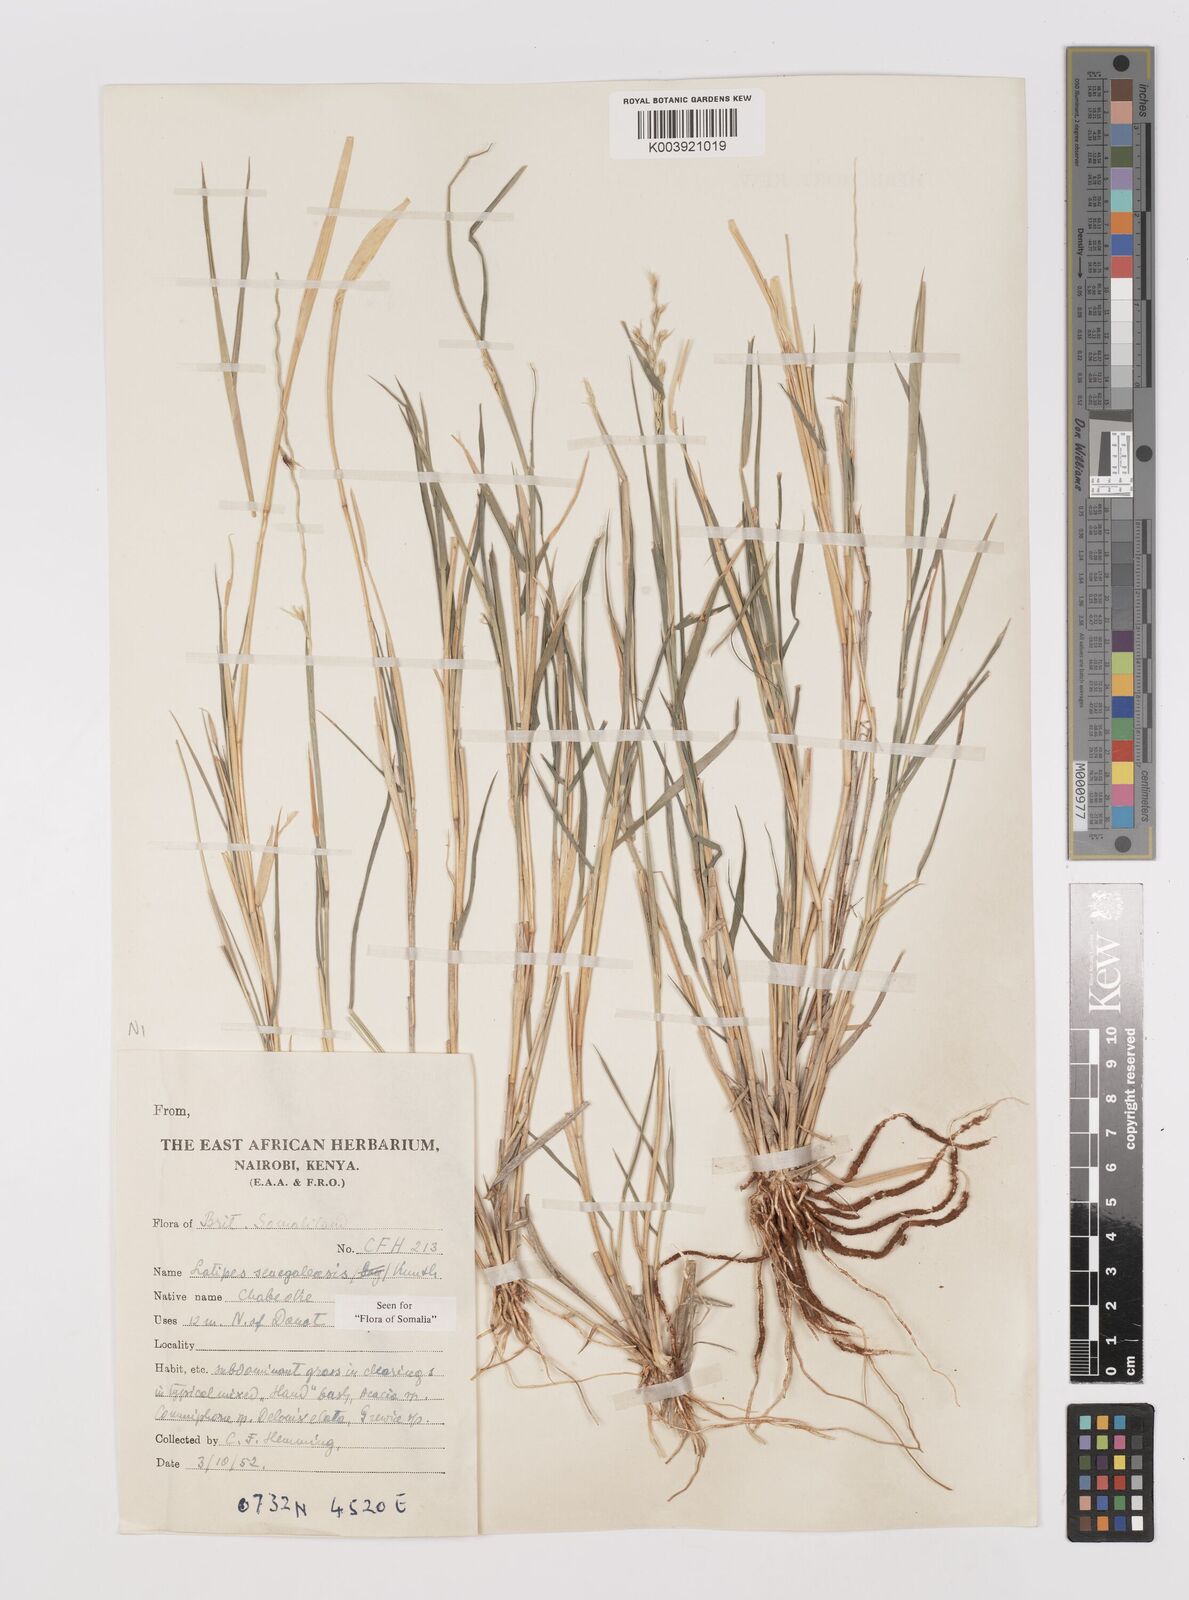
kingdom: Plantae
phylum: Tracheophyta
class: Liliopsida
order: Poales
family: Poaceae
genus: Leptothrium
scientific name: Leptothrium senegalense
